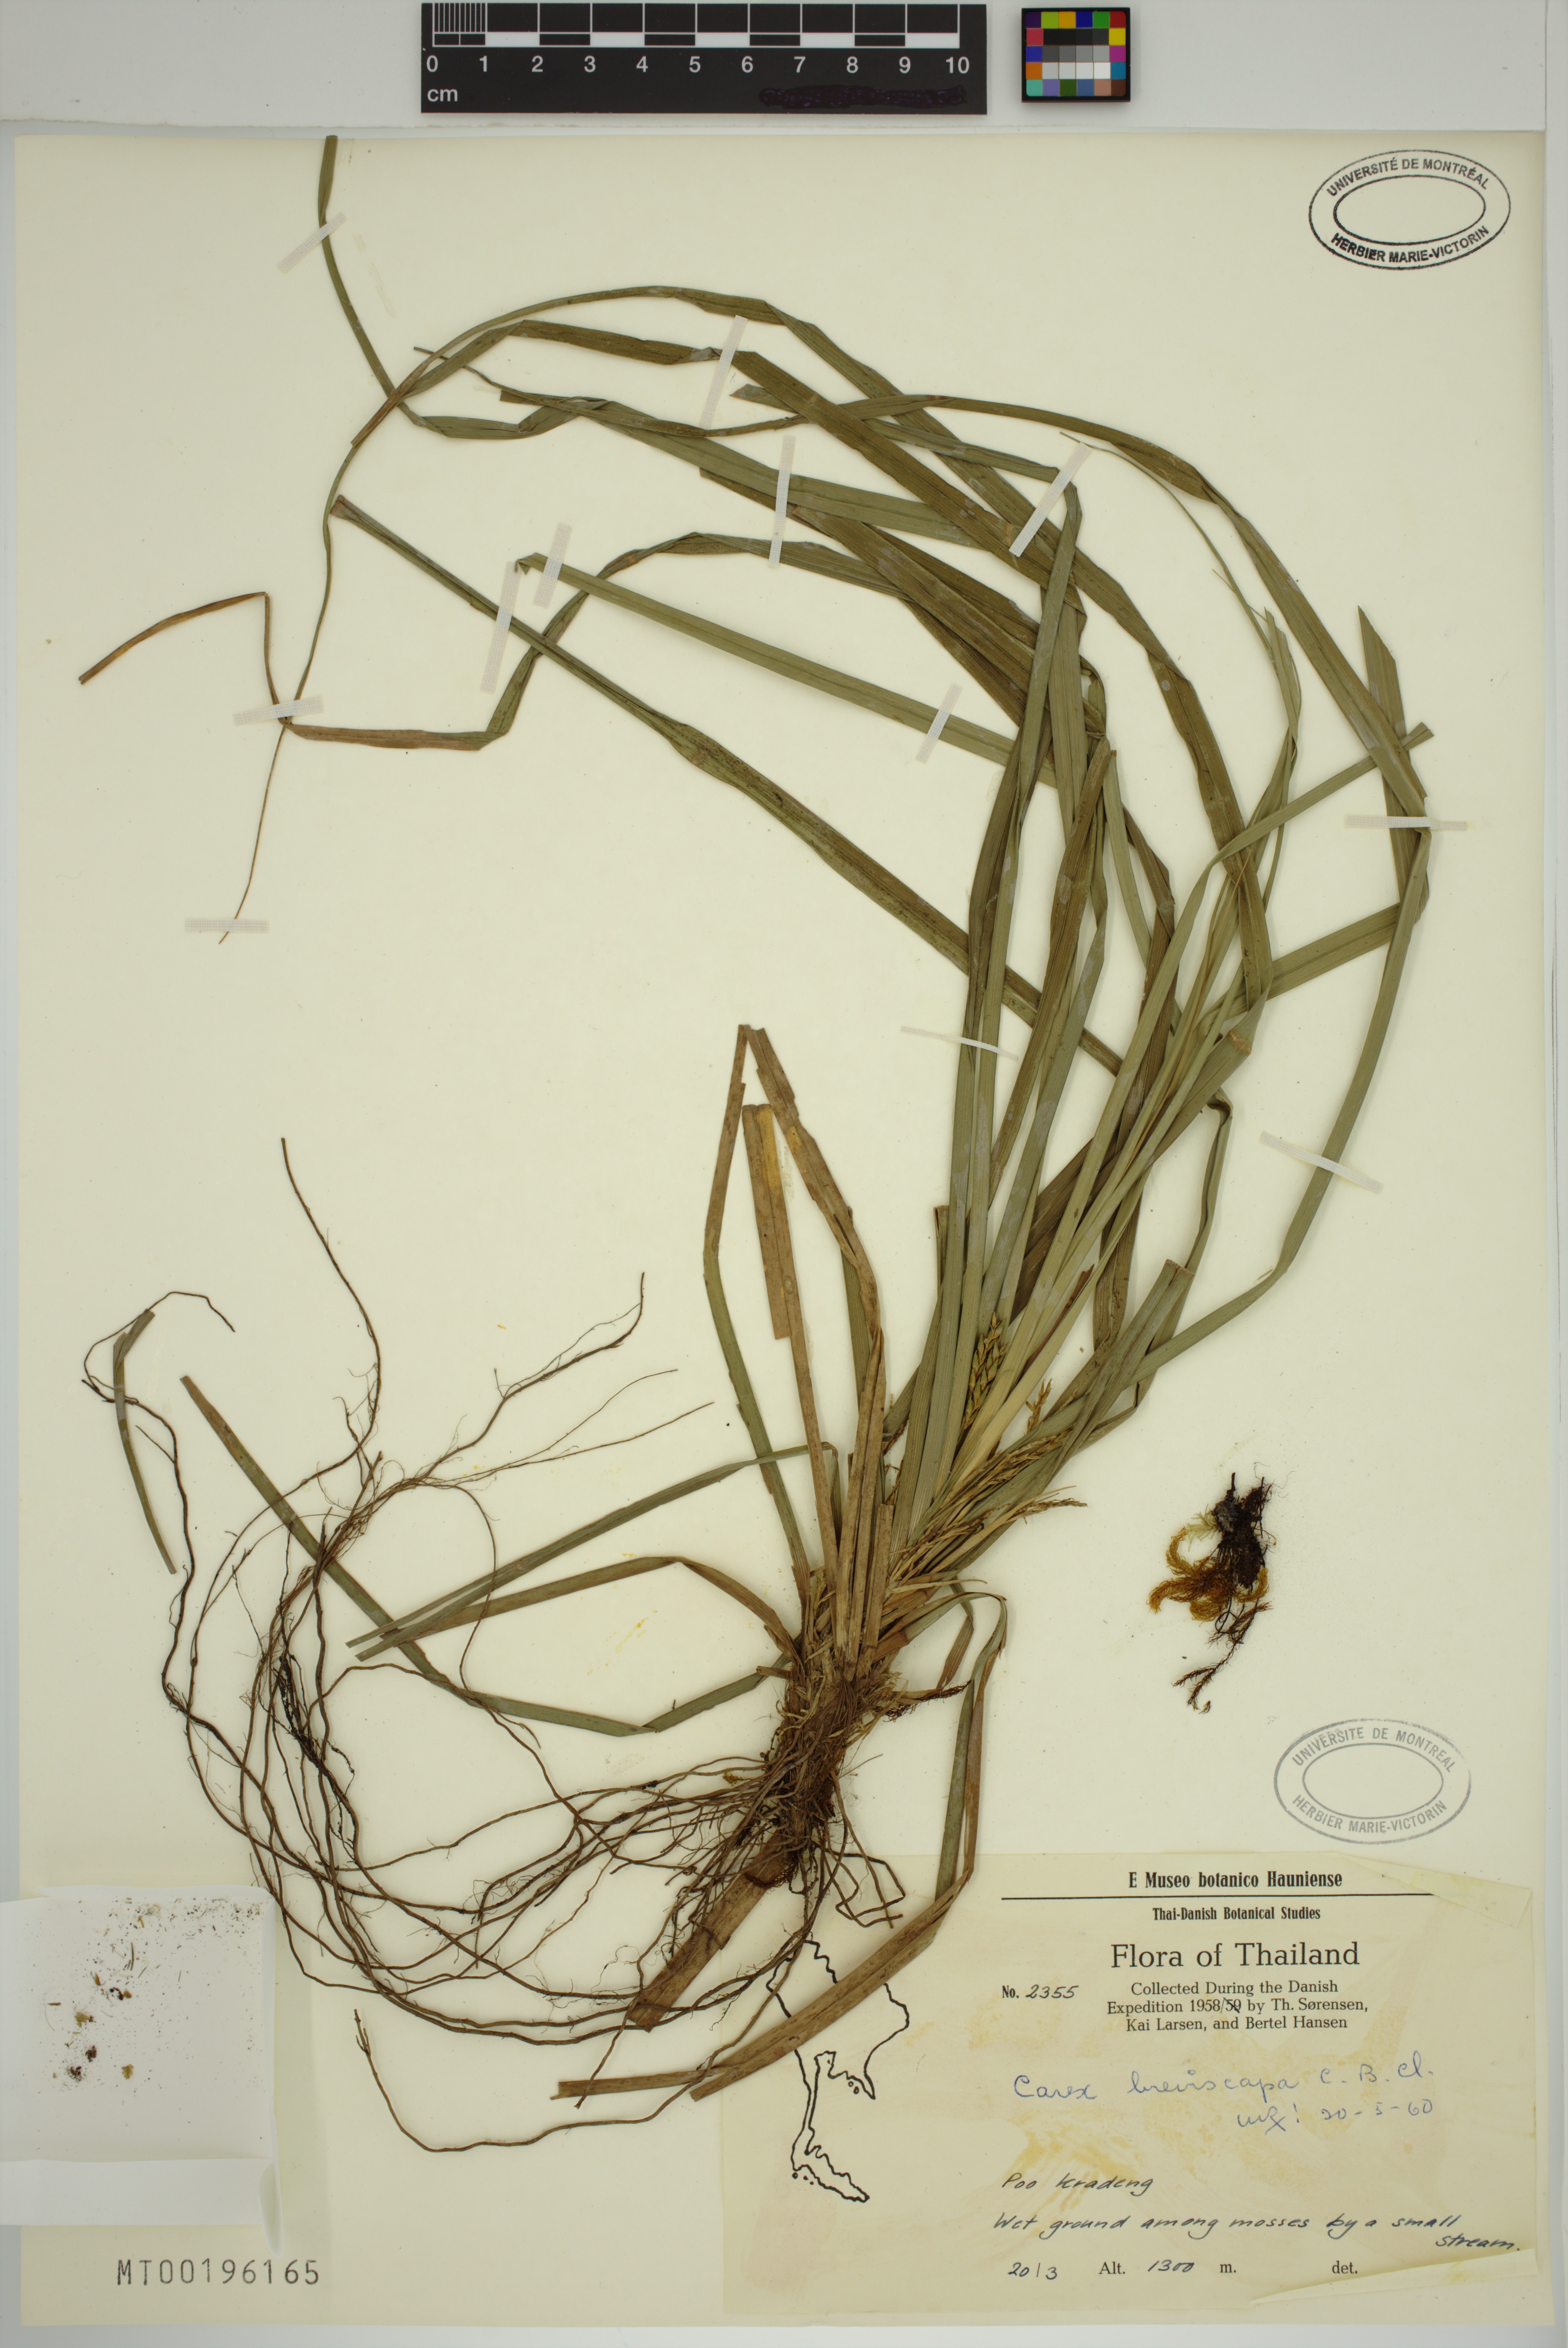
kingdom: Plantae
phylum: Tracheophyta
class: Liliopsida
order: Poales
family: Cyperaceae
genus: Carex
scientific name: Carex breviscapa
